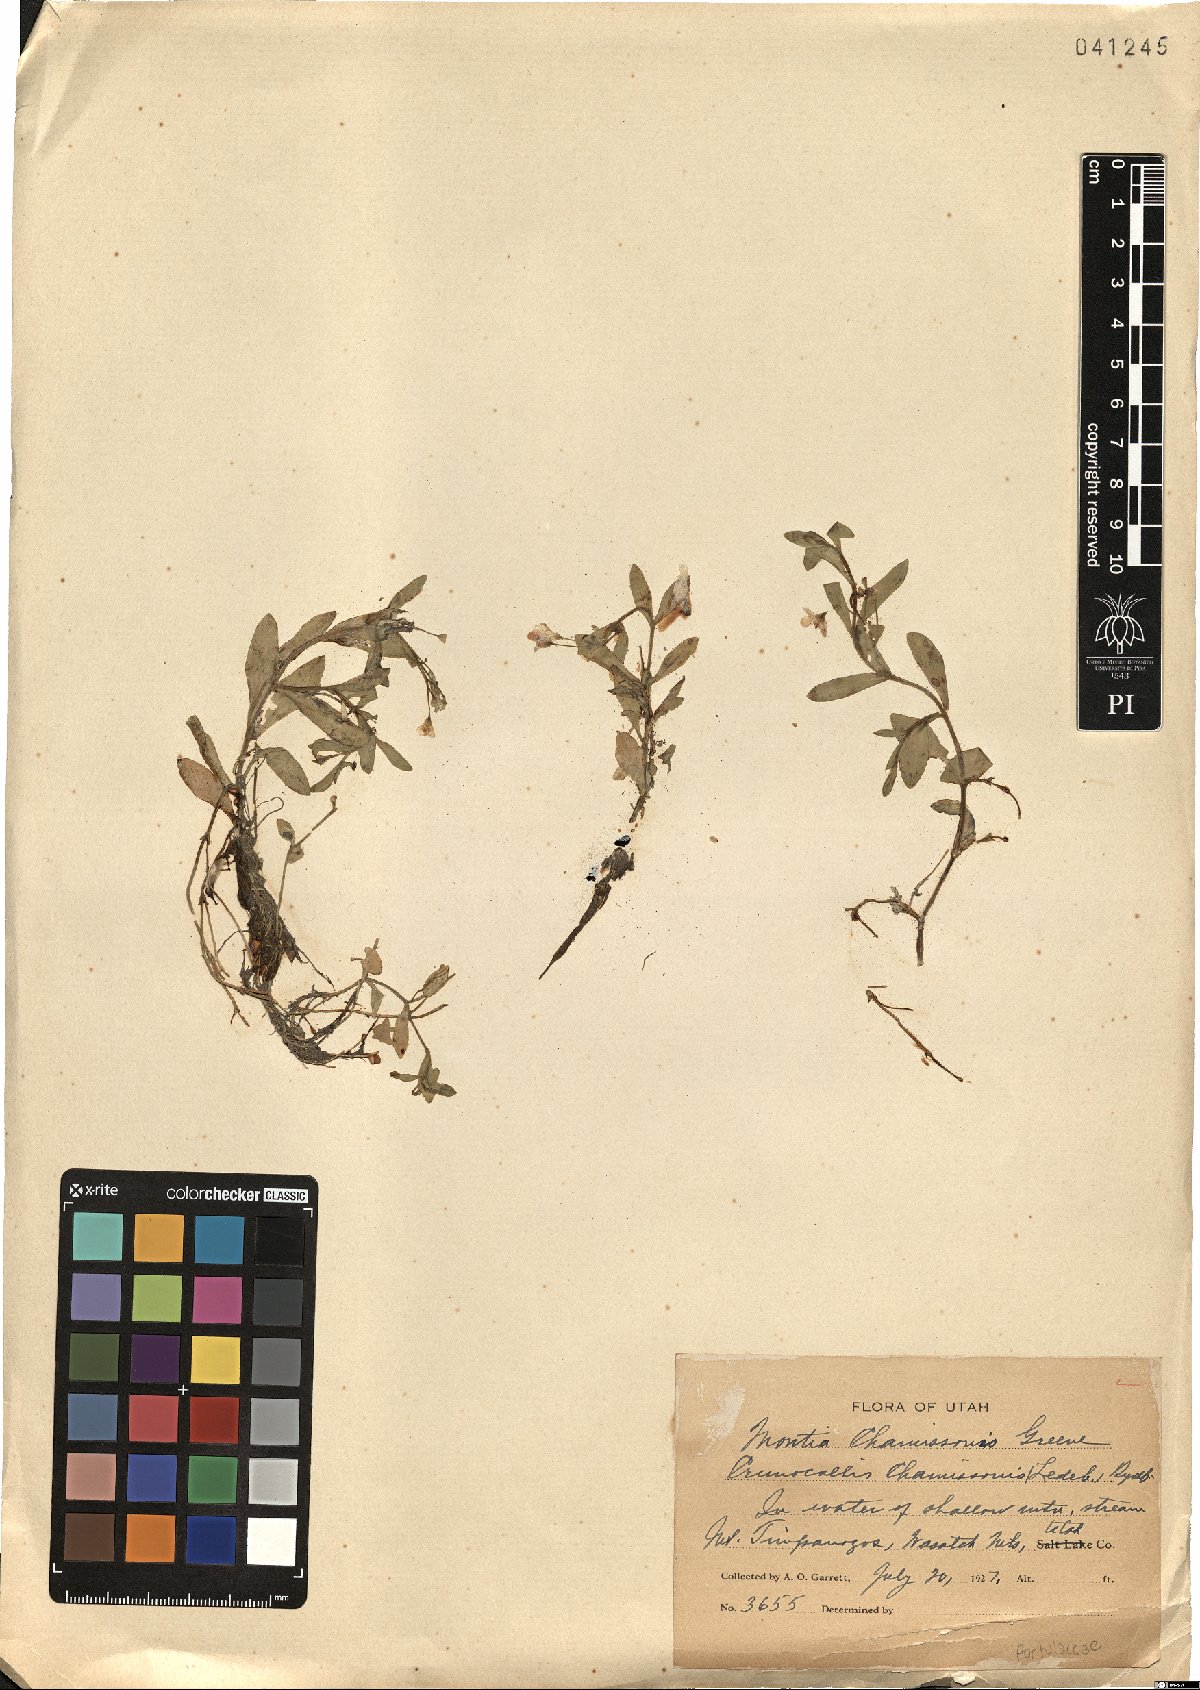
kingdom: Plantae
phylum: Tracheophyta
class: Magnoliopsida
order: Caryophyllales
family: Montiaceae
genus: Montia
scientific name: Montia chamissoi
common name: Chamisso's candyflower
